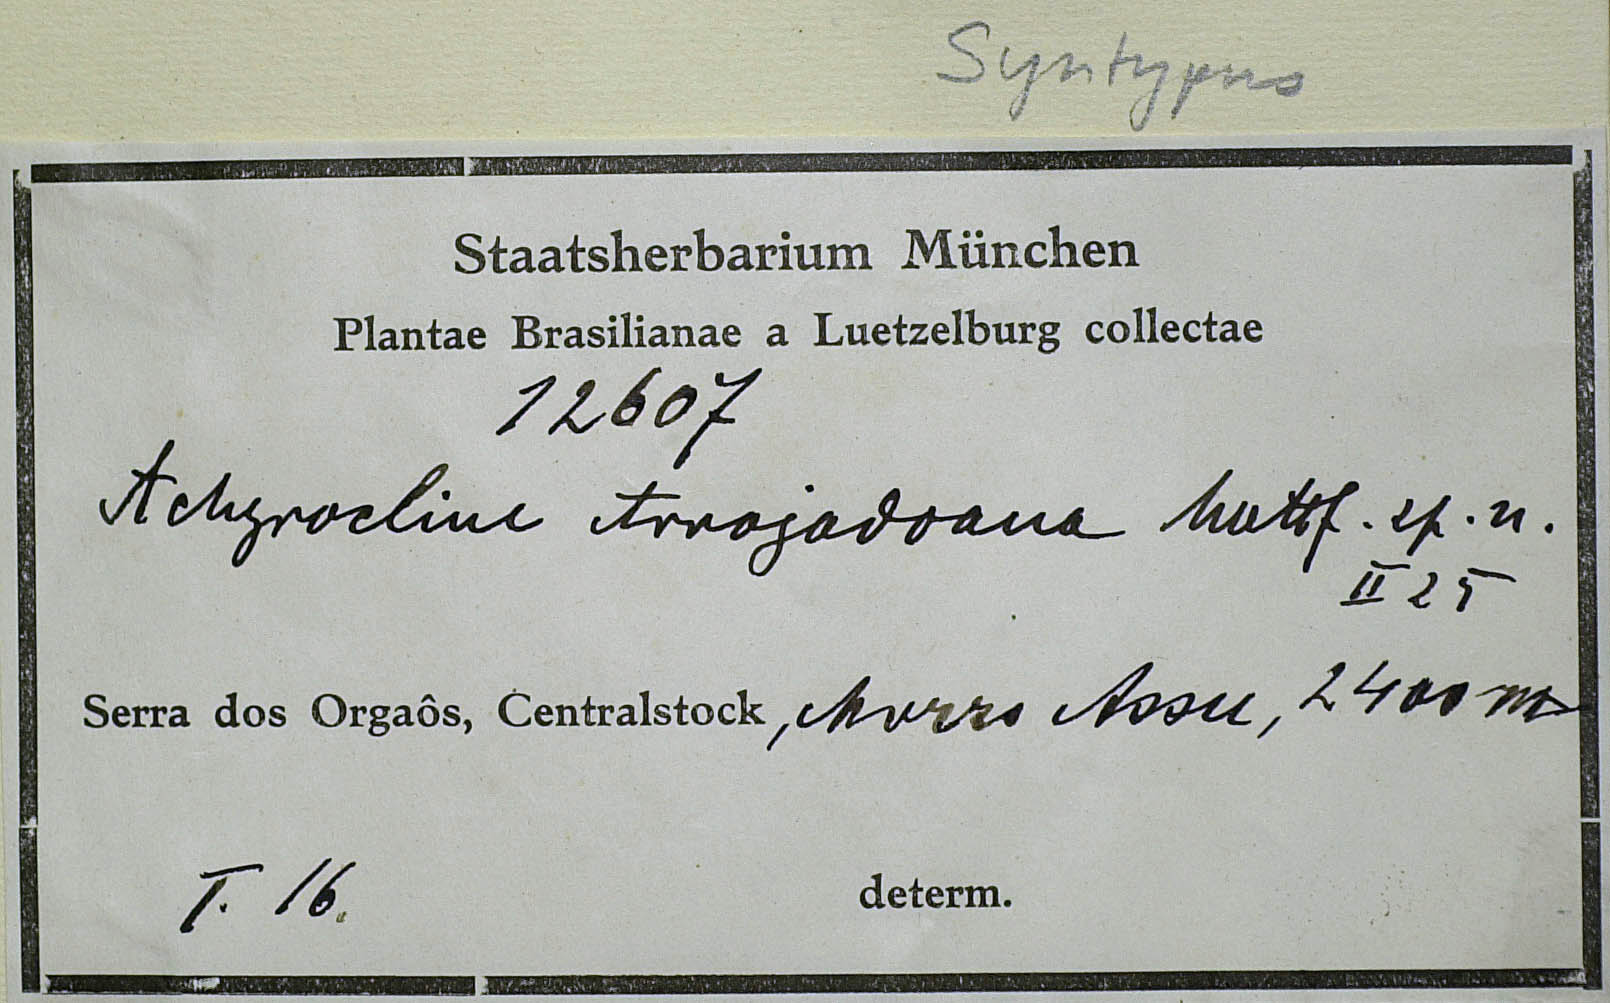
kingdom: Plantae
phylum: Tracheophyta
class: Magnoliopsida
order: Asterales
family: Asteraceae
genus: Achyrocline
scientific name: Achyrocline arrojadoana
